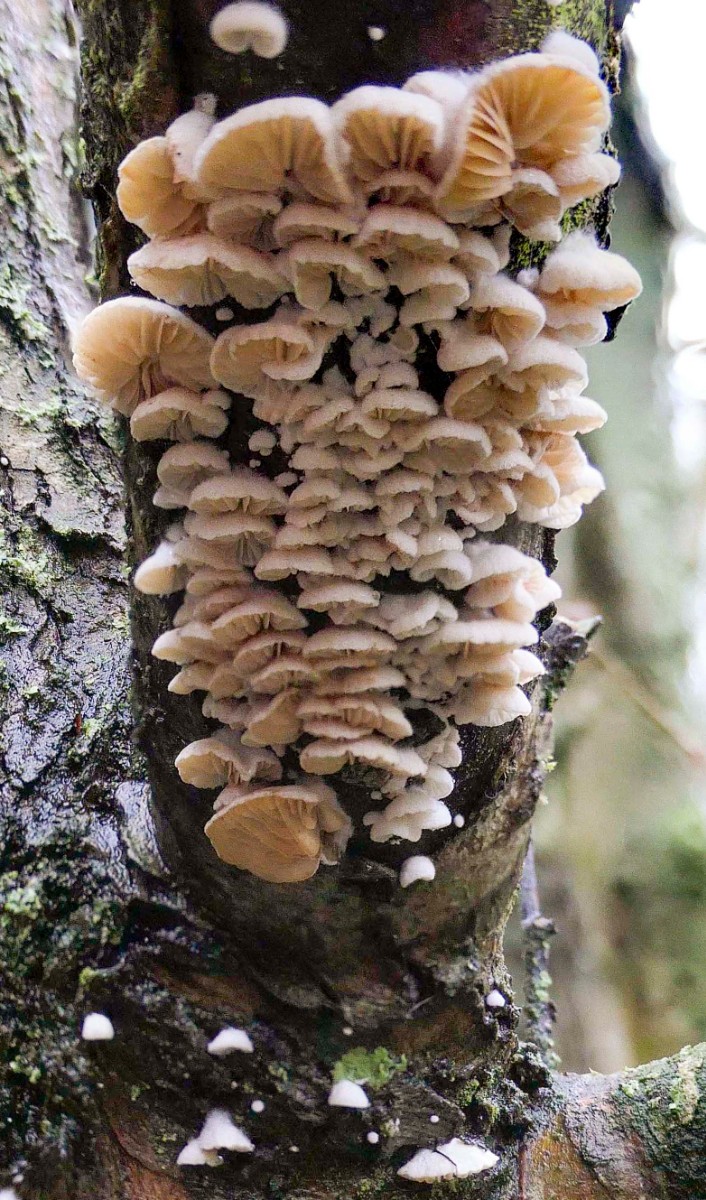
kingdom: Fungi
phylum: Basidiomycota
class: Agaricomycetes
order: Agaricales
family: Entolomataceae
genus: Clitopilus
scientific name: Clitopilus hobsonii
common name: Miller's oysterling
